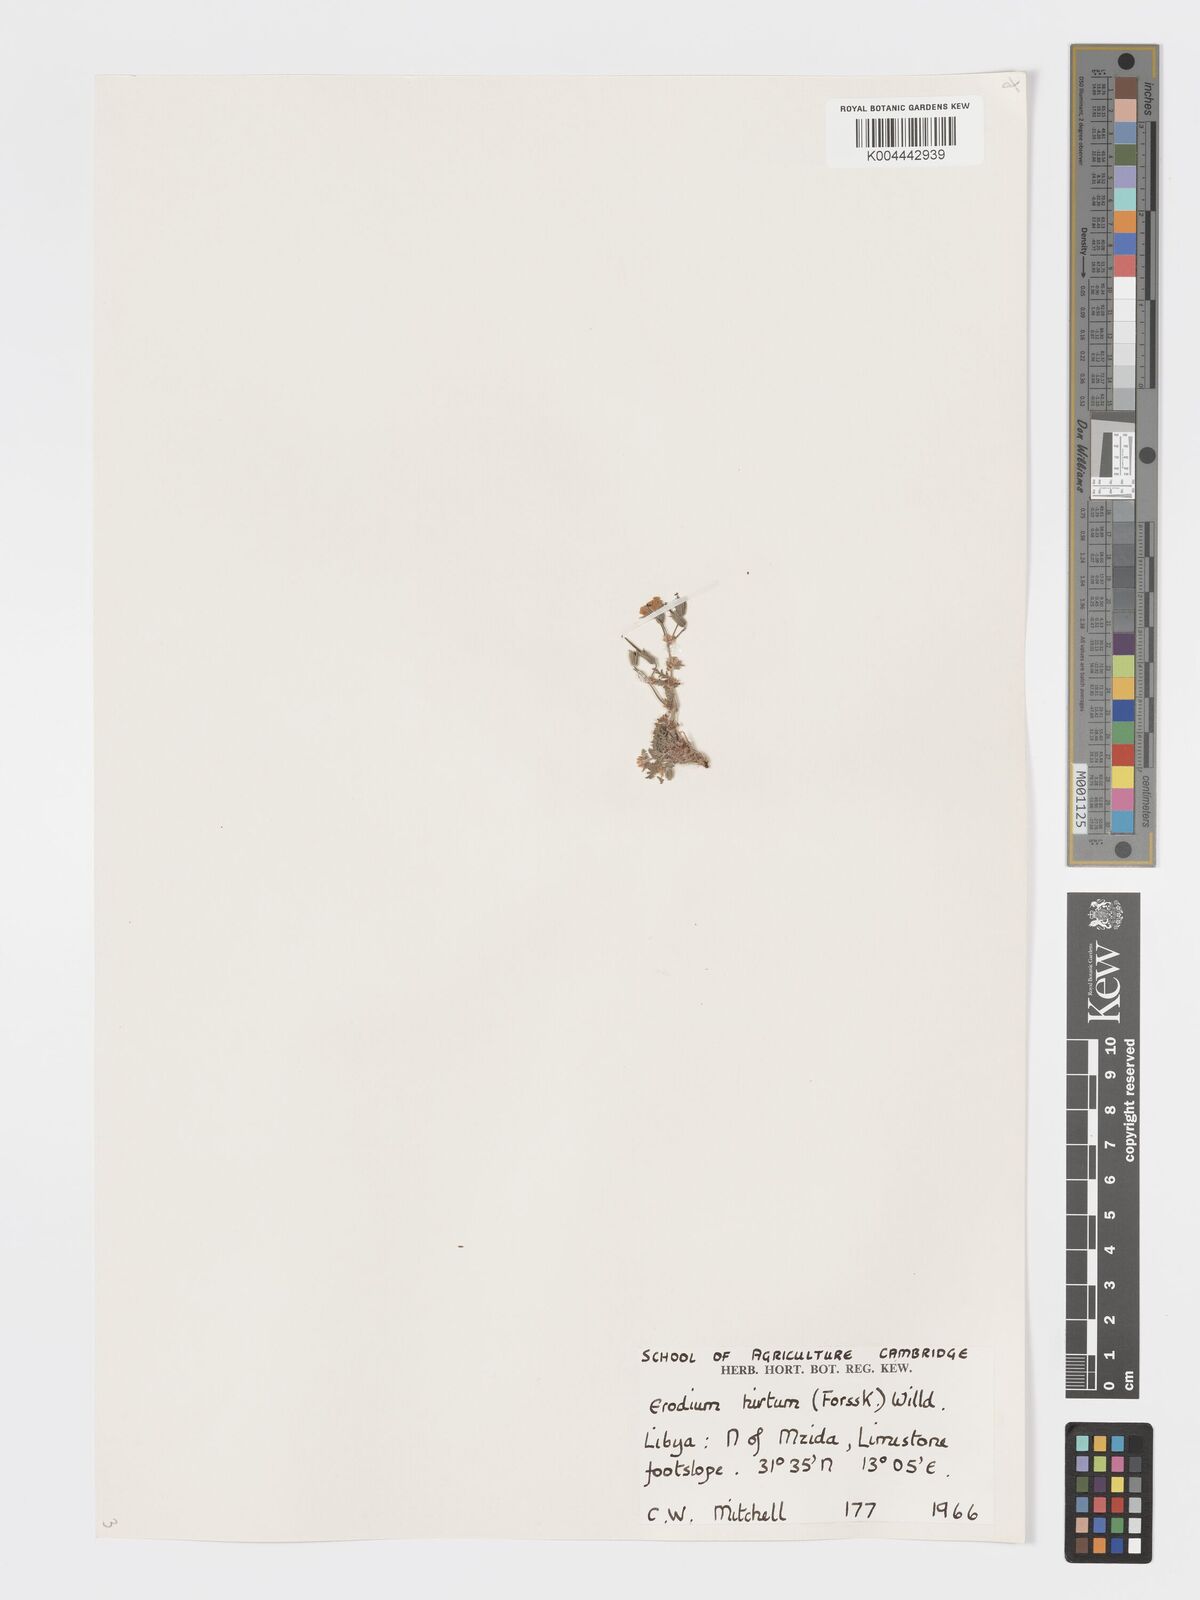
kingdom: Plantae
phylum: Tracheophyta
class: Magnoliopsida
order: Geraniales
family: Geraniaceae
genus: Erodium
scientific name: Erodium crassifolium
